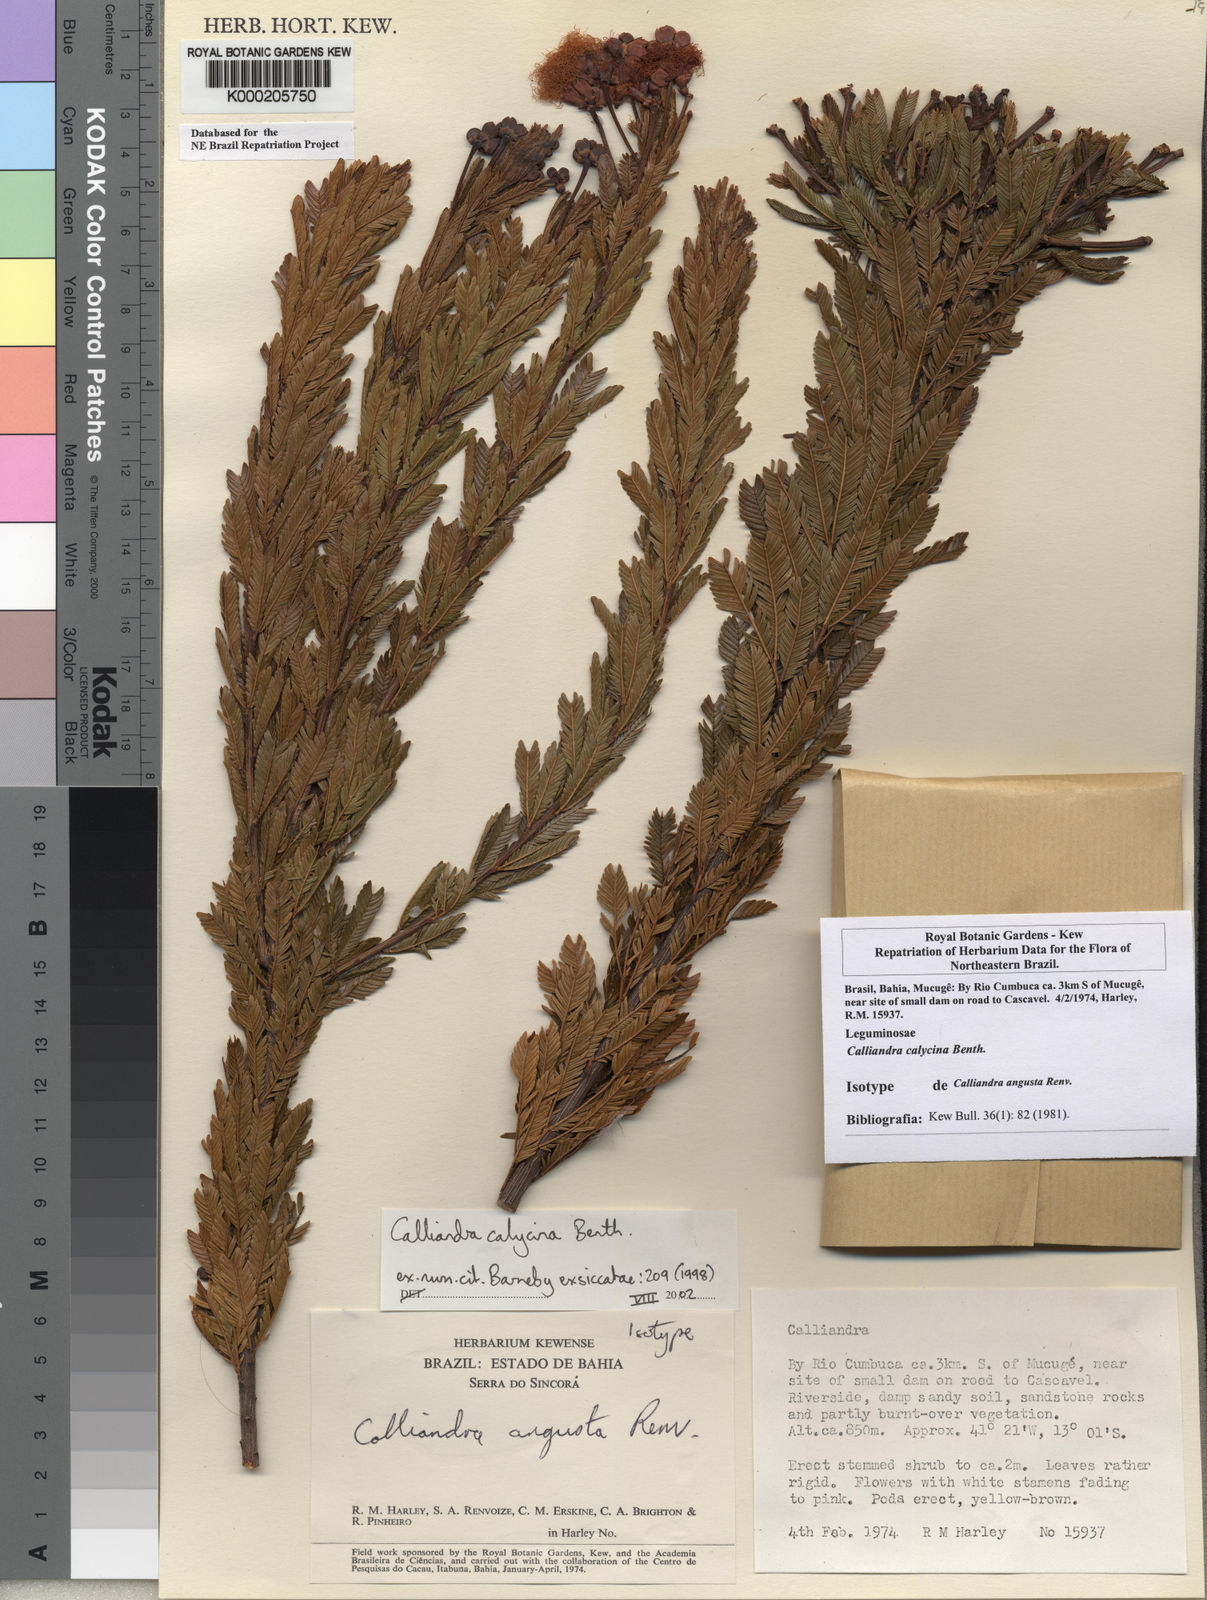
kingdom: Plantae
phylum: Tracheophyta
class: Magnoliopsida
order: Fabales
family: Fabaceae
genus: Calliandra
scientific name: Calliandra calycina
